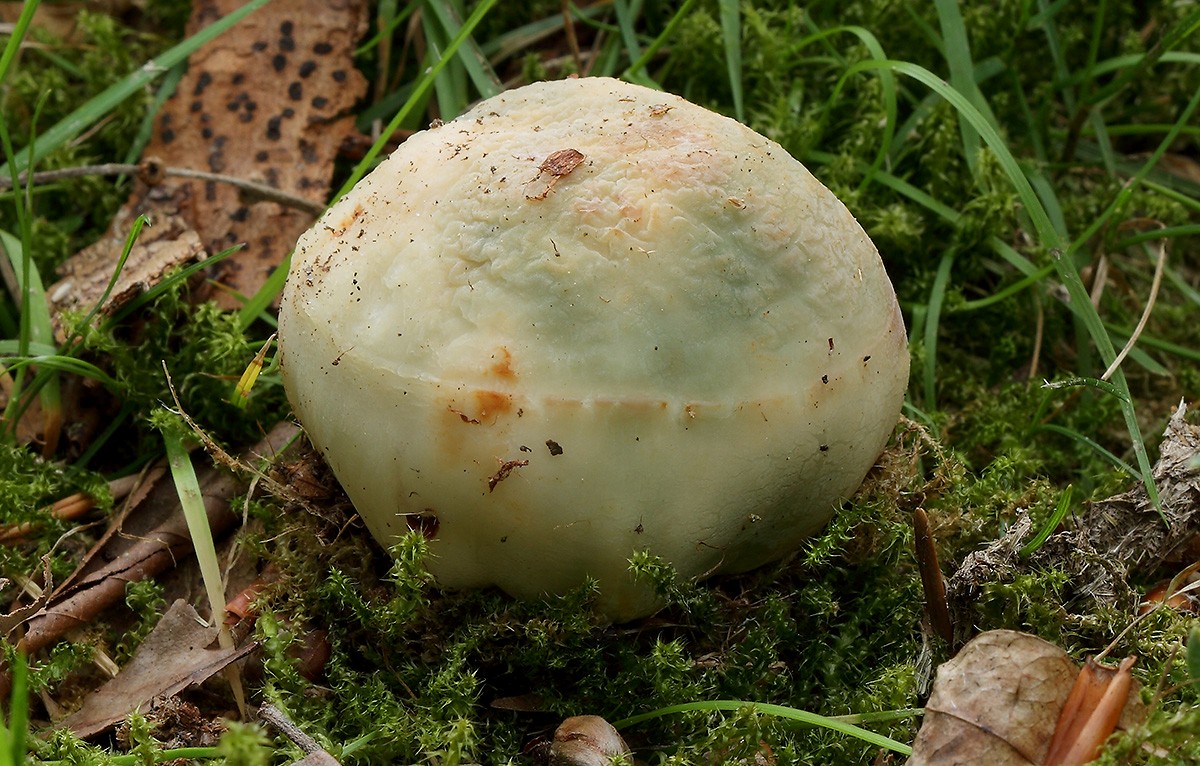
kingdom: Fungi
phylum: Basidiomycota
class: Agaricomycetes
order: Russulales
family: Russulaceae
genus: Russula
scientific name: Russula virescens
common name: spanskgrøn skørhat
